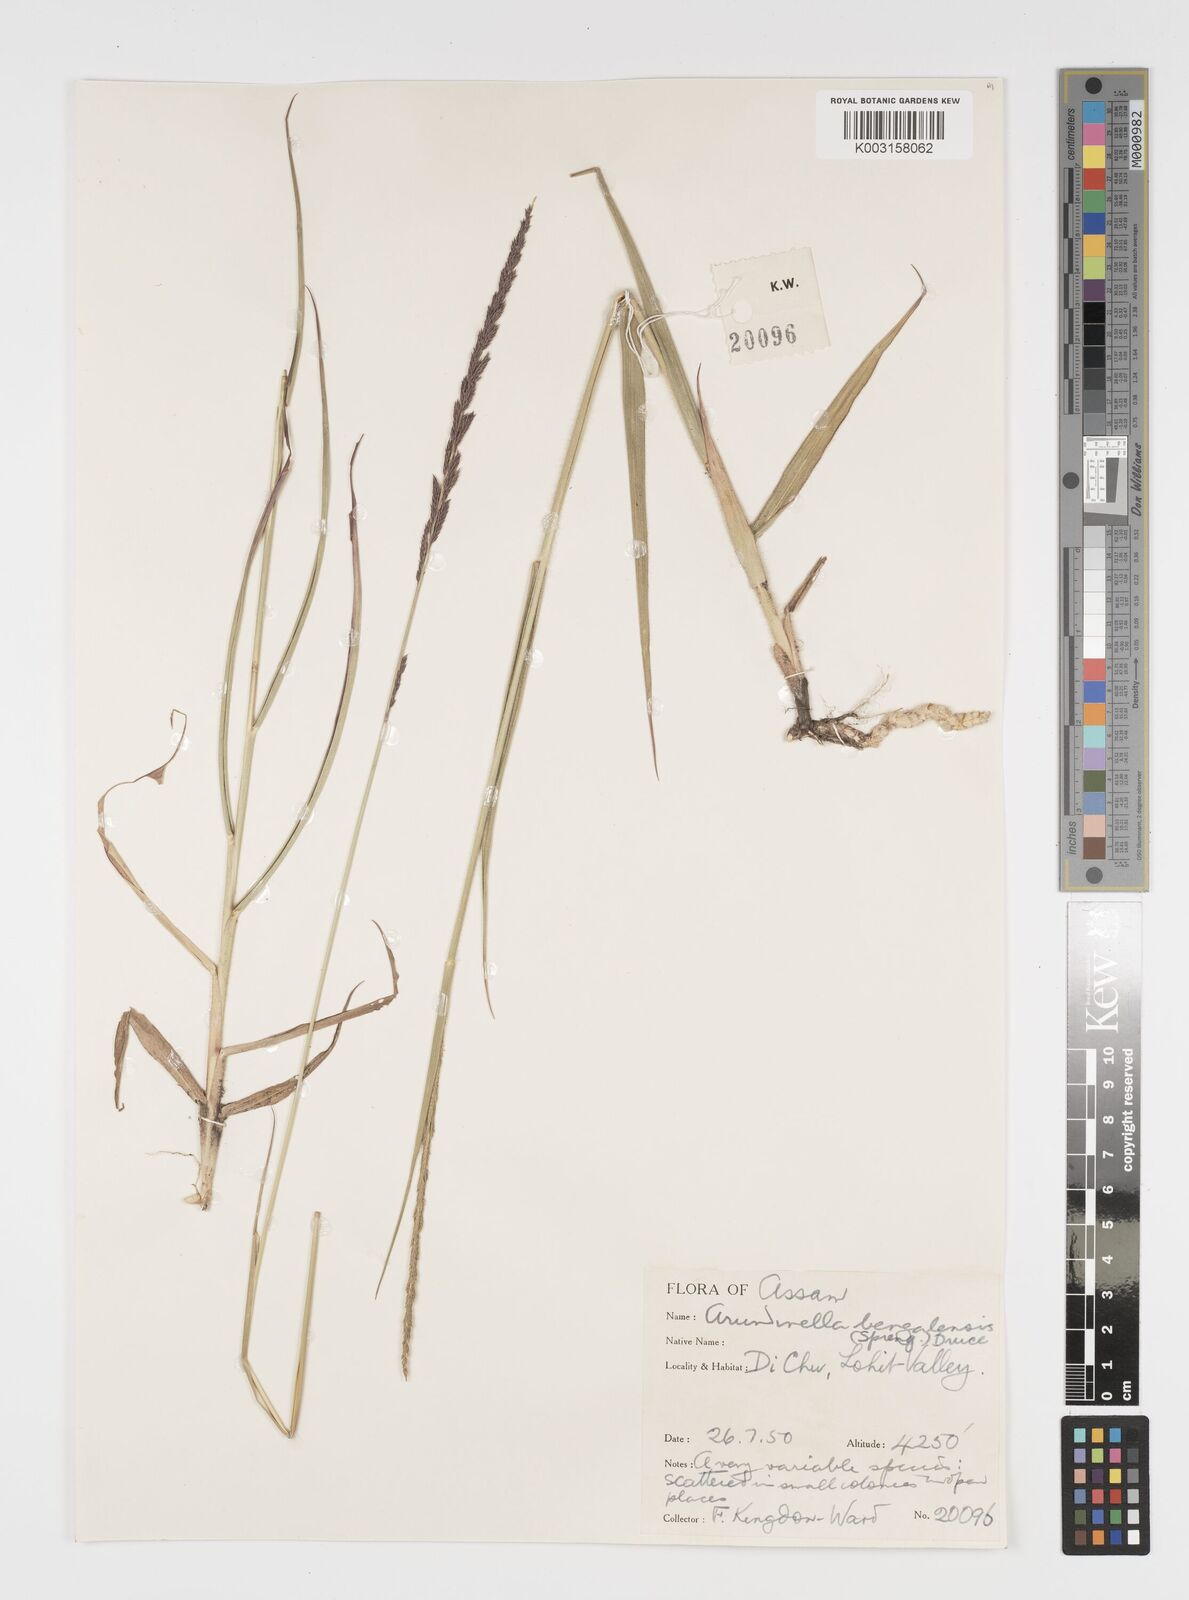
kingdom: Plantae
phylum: Tracheophyta
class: Liliopsida
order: Poales
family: Poaceae
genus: Arundinella
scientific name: Arundinella bengalensis
